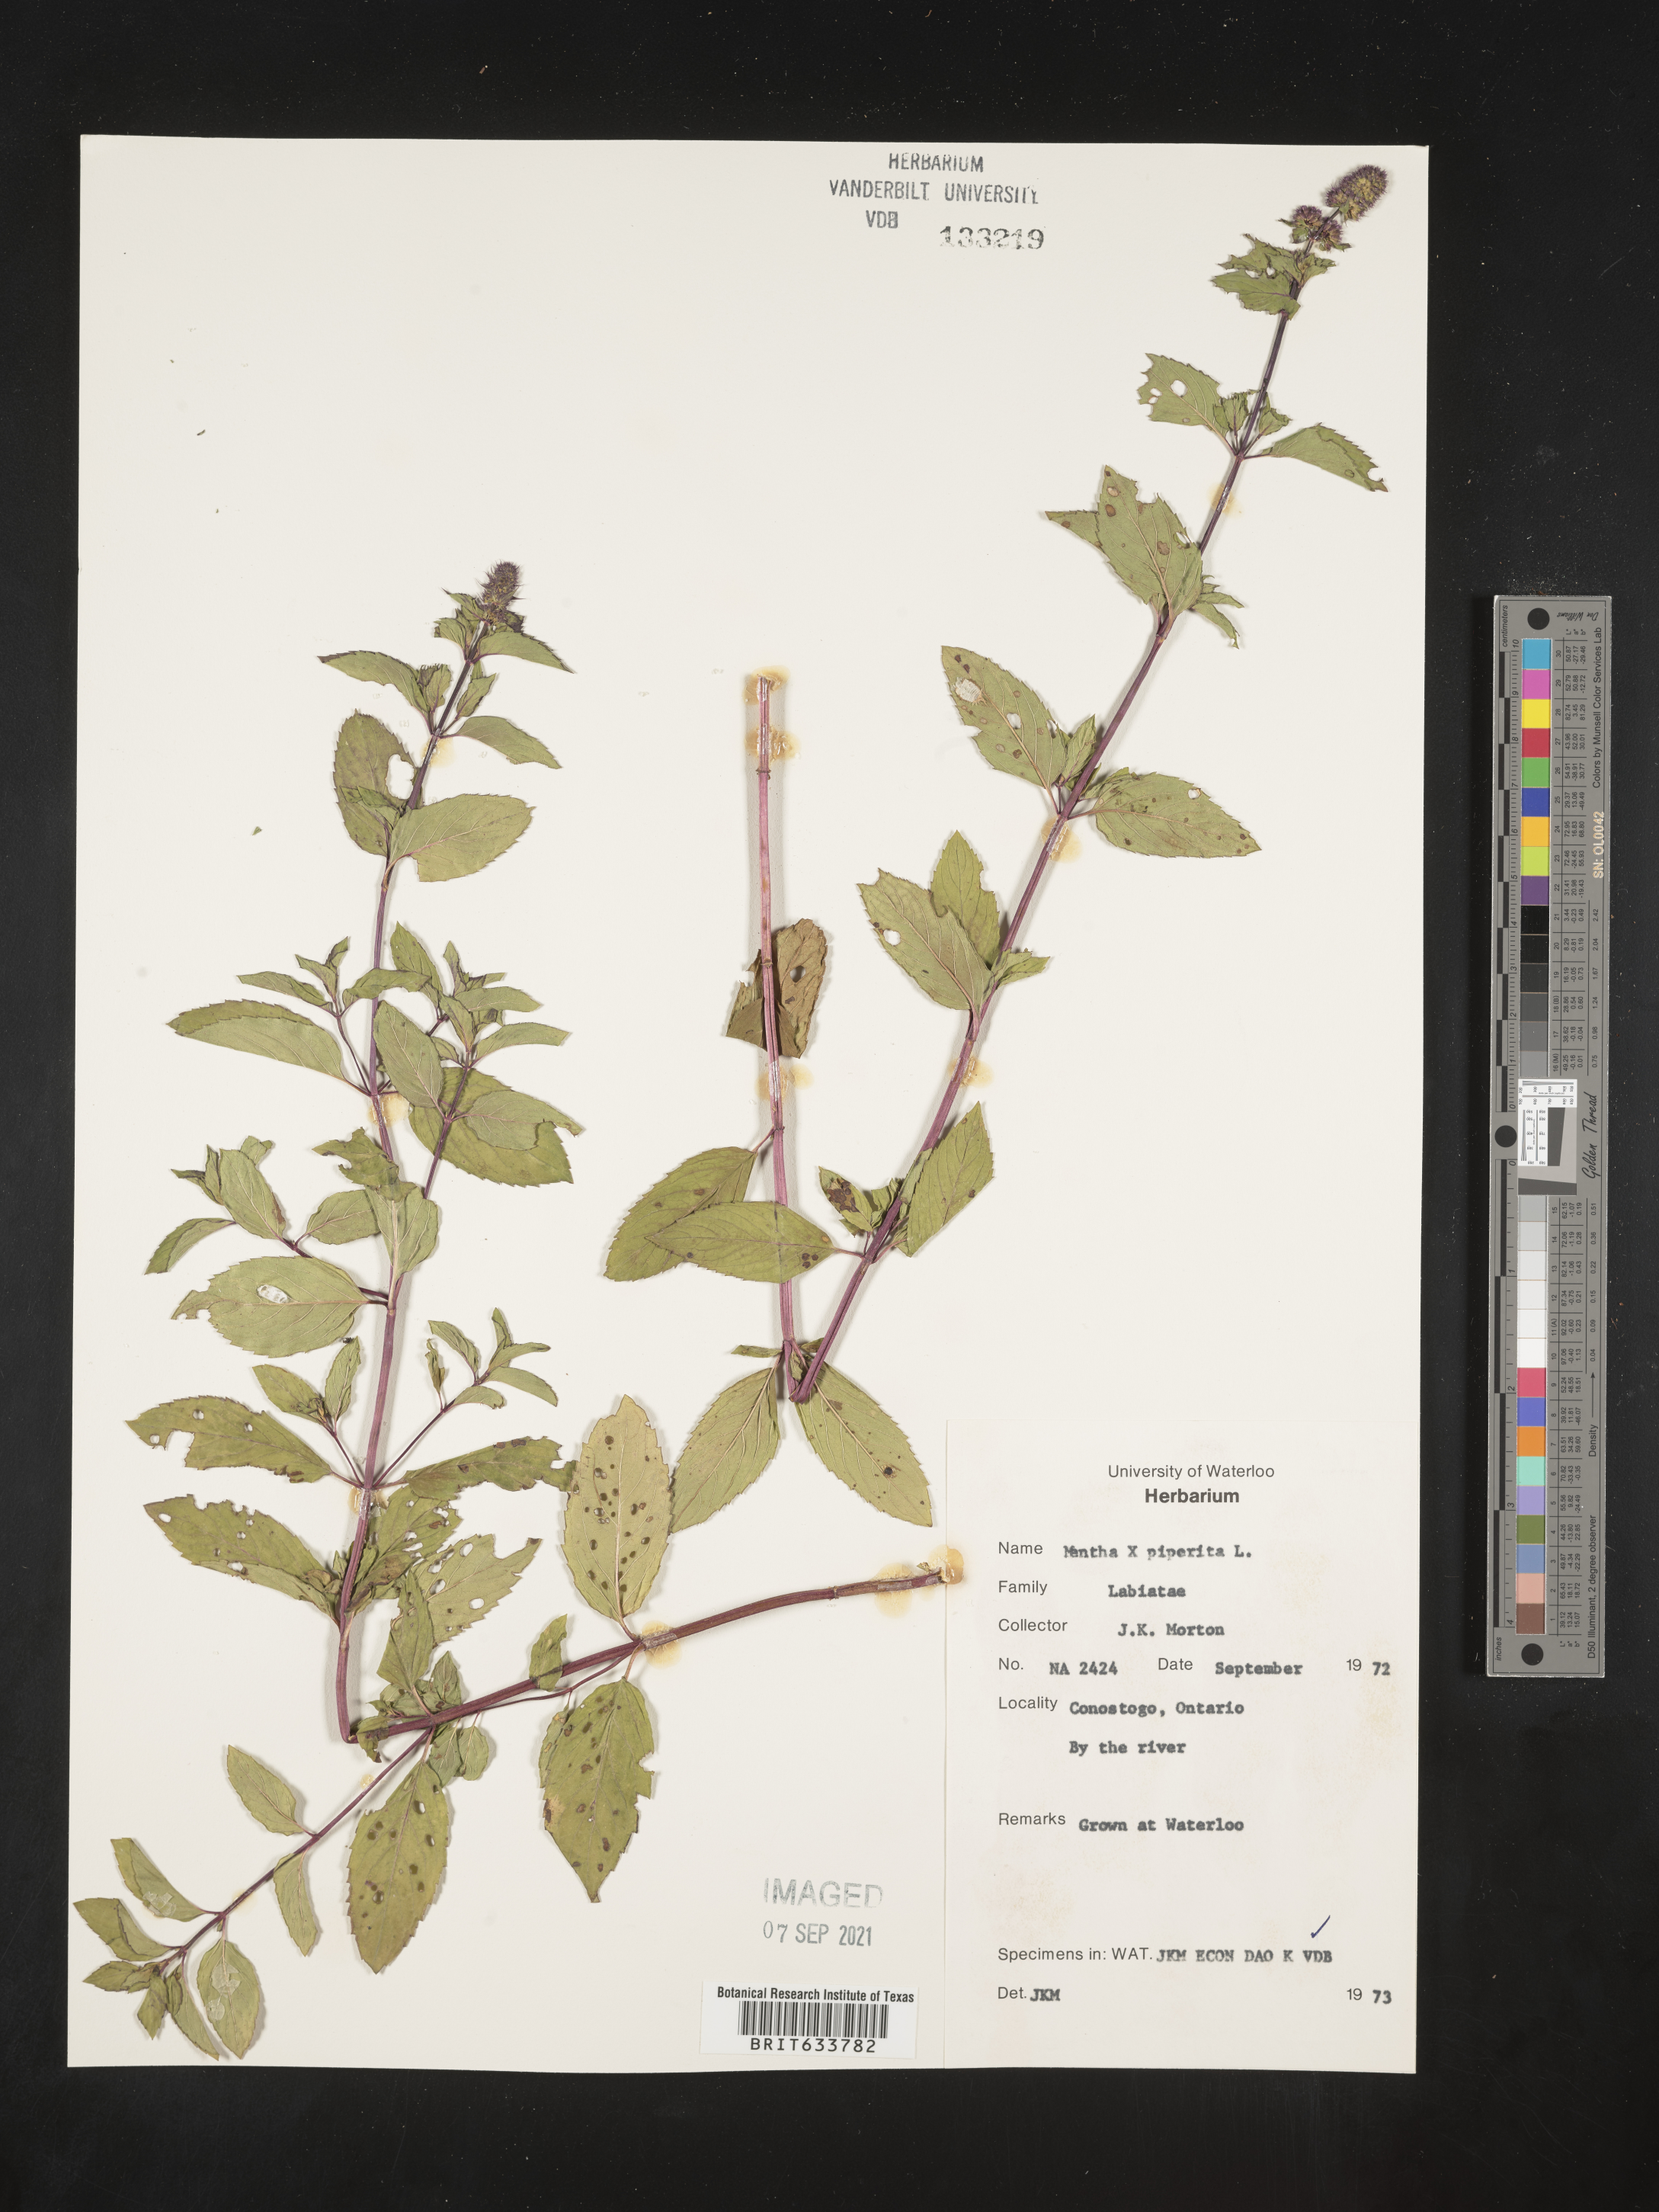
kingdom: Plantae
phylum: Tracheophyta
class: Magnoliopsida
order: Lamiales
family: Lamiaceae
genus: Mentha
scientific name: Mentha
